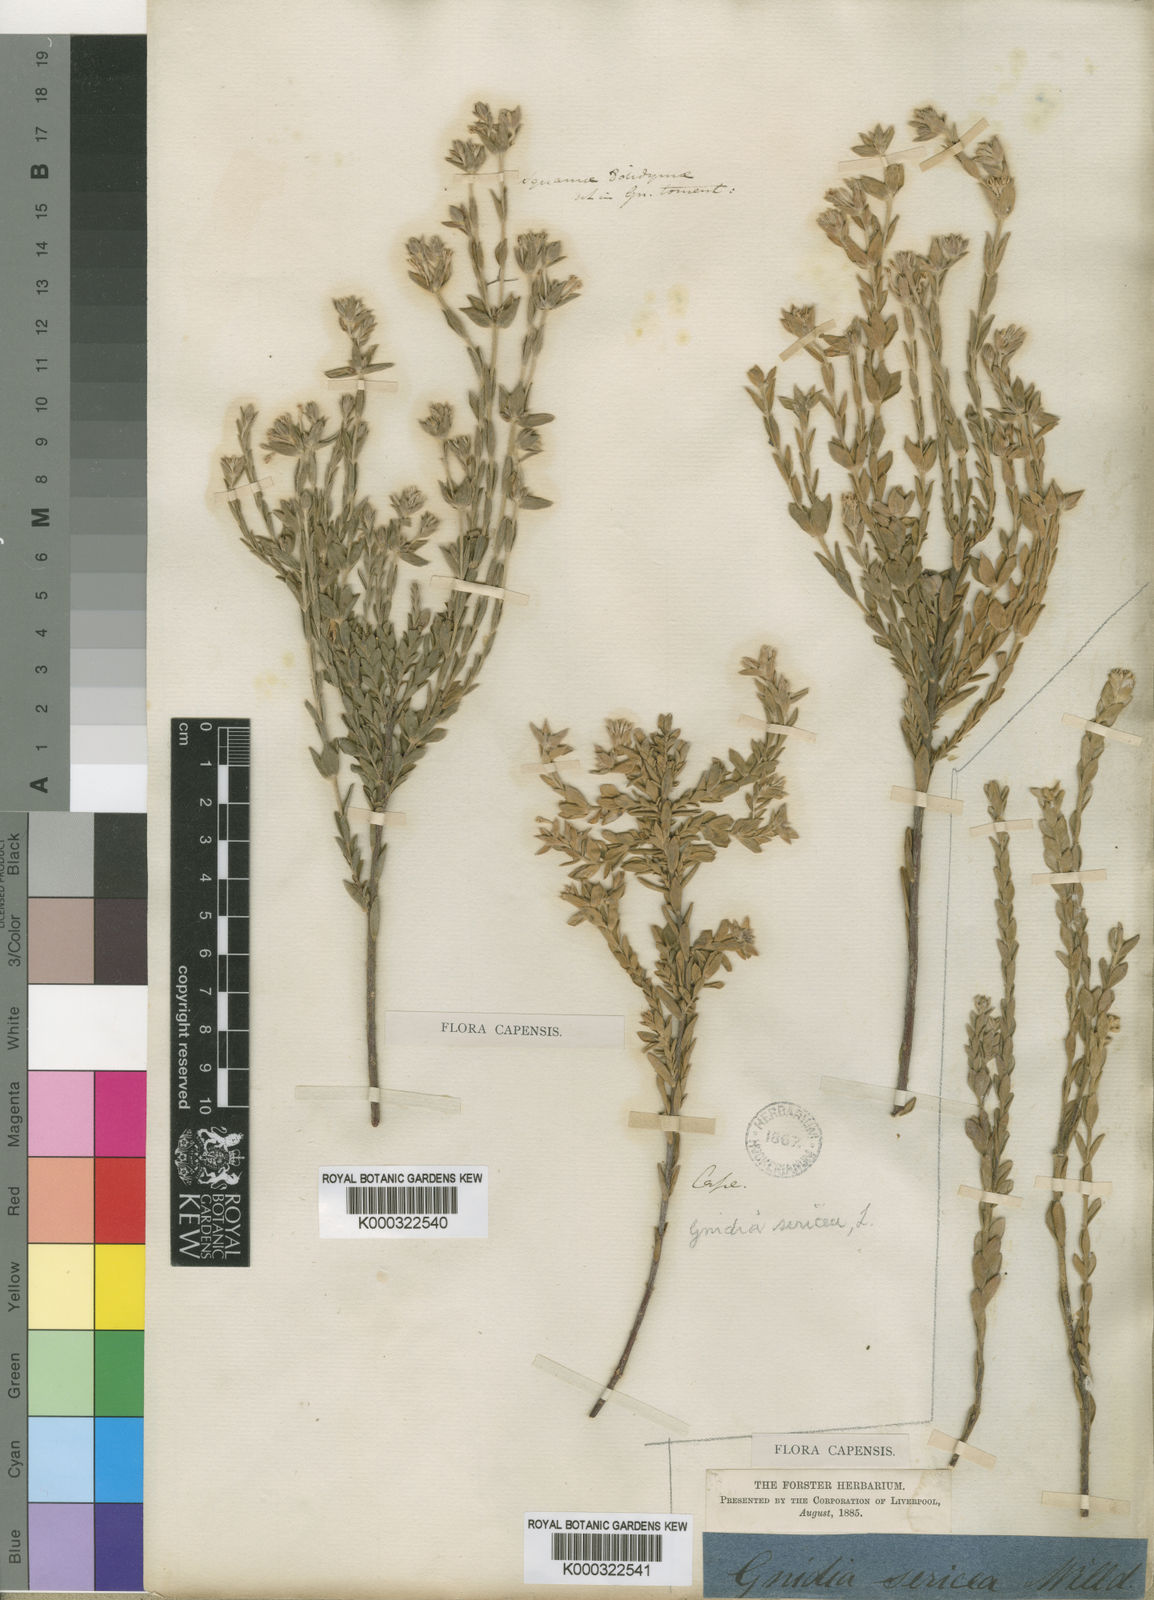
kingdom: Plantae
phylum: Tracheophyta
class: Magnoliopsida
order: Malvales
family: Thymelaeaceae
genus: Gnidia
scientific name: Gnidia sericea
